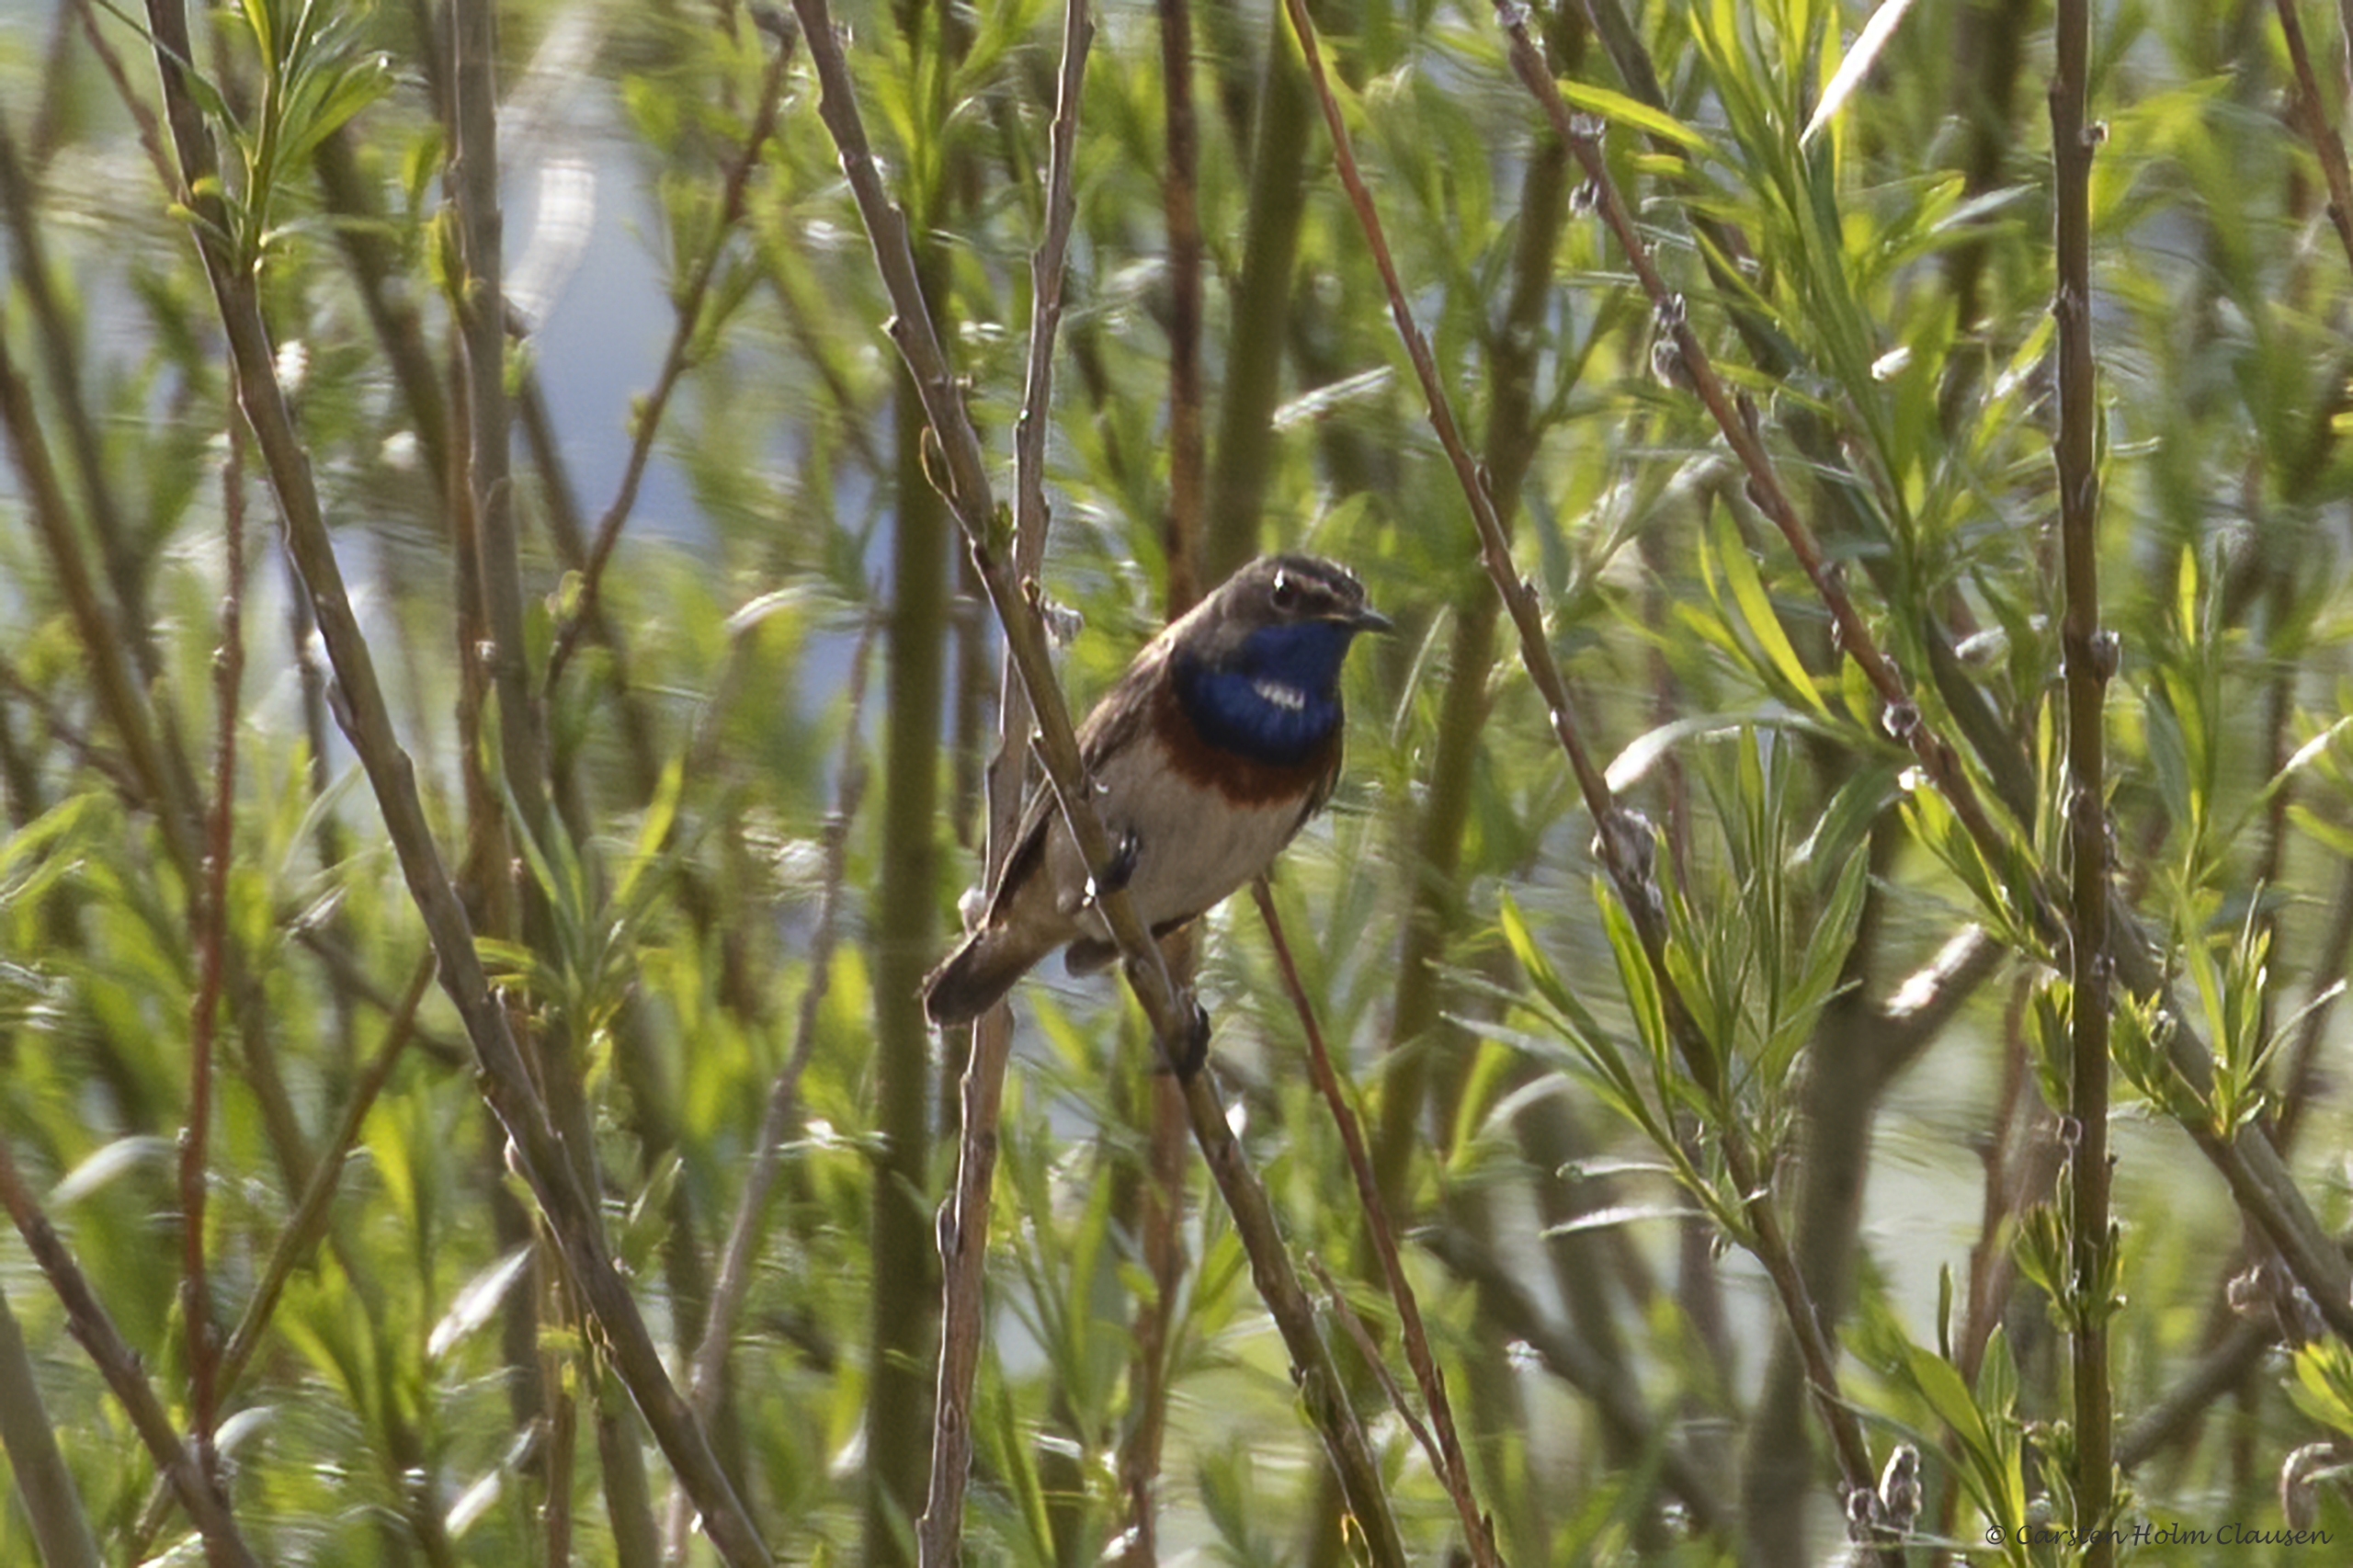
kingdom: Animalia
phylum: Chordata
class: Aves
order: Passeriformes
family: Muscicapidae
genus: Luscinia
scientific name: Luscinia svecica
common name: Sydlig blåhals
